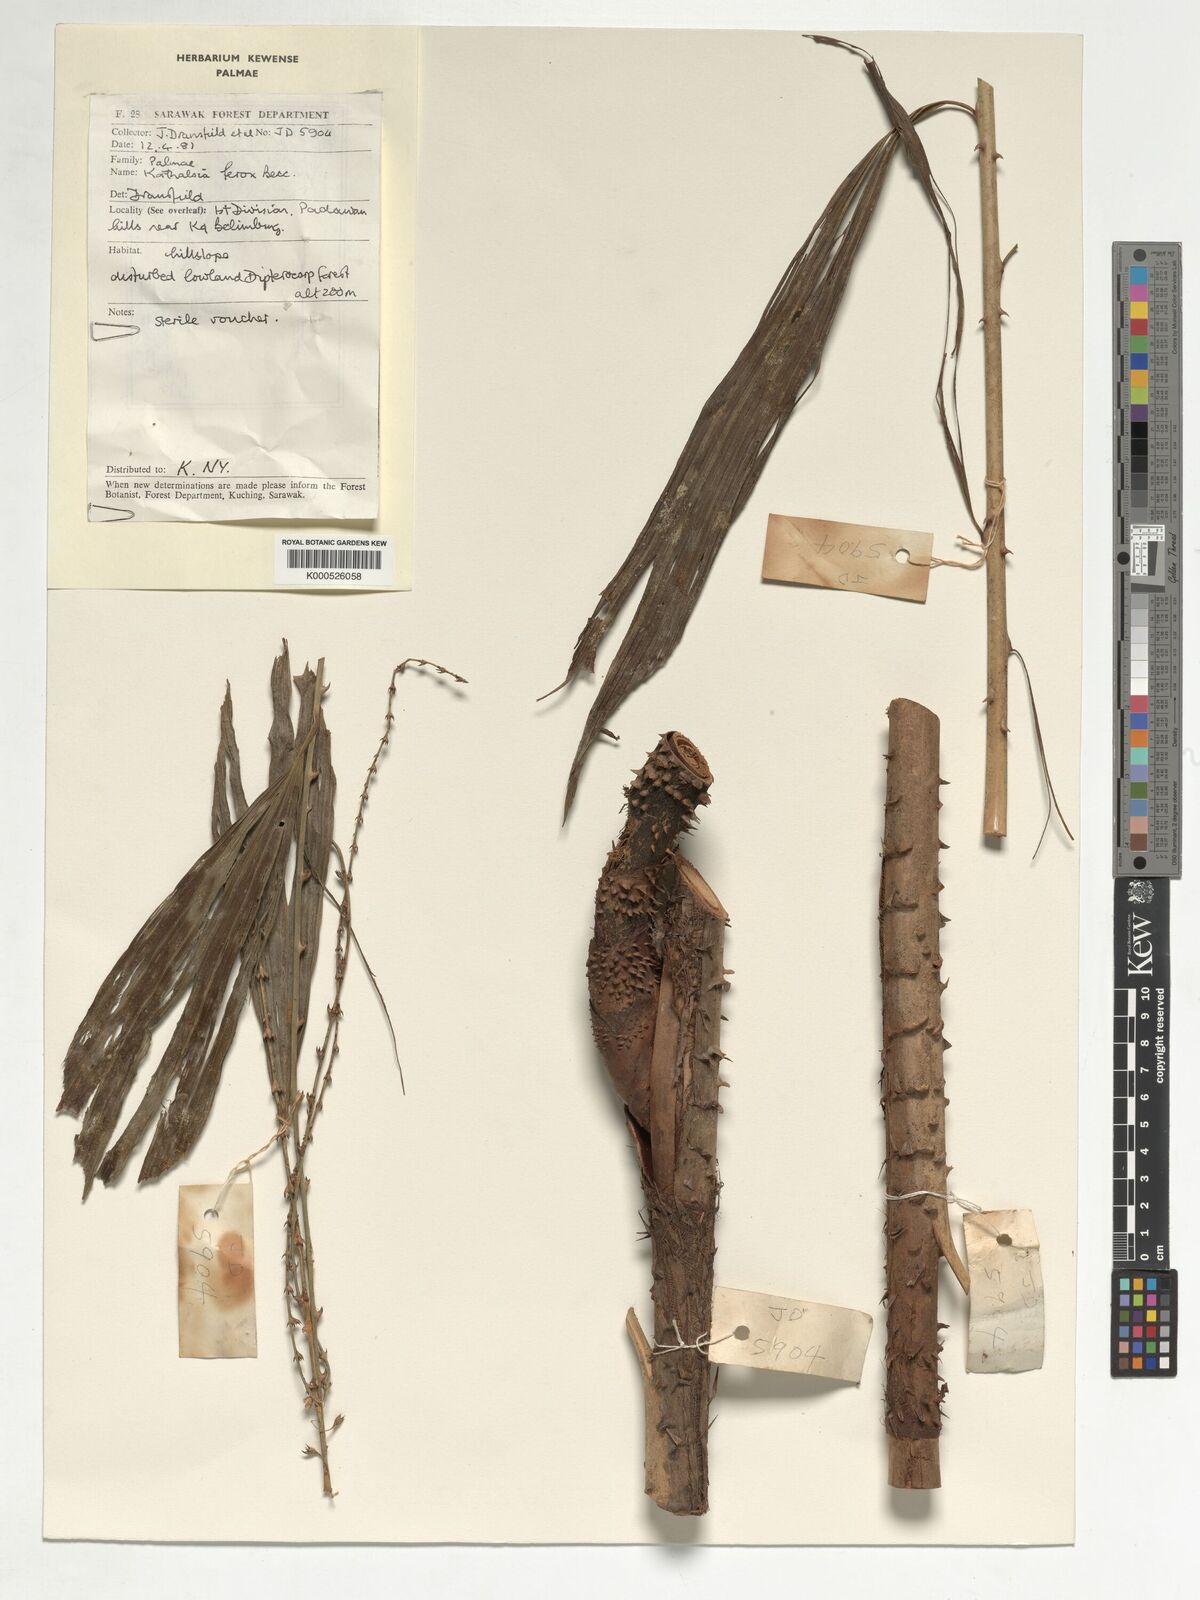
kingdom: Plantae
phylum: Tracheophyta
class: Liliopsida
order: Arecales
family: Arecaceae
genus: Korthalsia
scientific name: Korthalsia ferox
